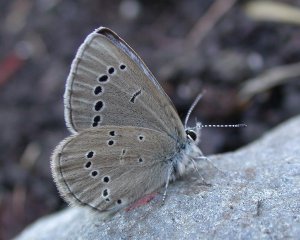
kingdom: Animalia
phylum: Arthropoda
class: Insecta
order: Lepidoptera
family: Lycaenidae
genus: Glaucopsyche
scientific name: Glaucopsyche lygdamus
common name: Silvery Blue
